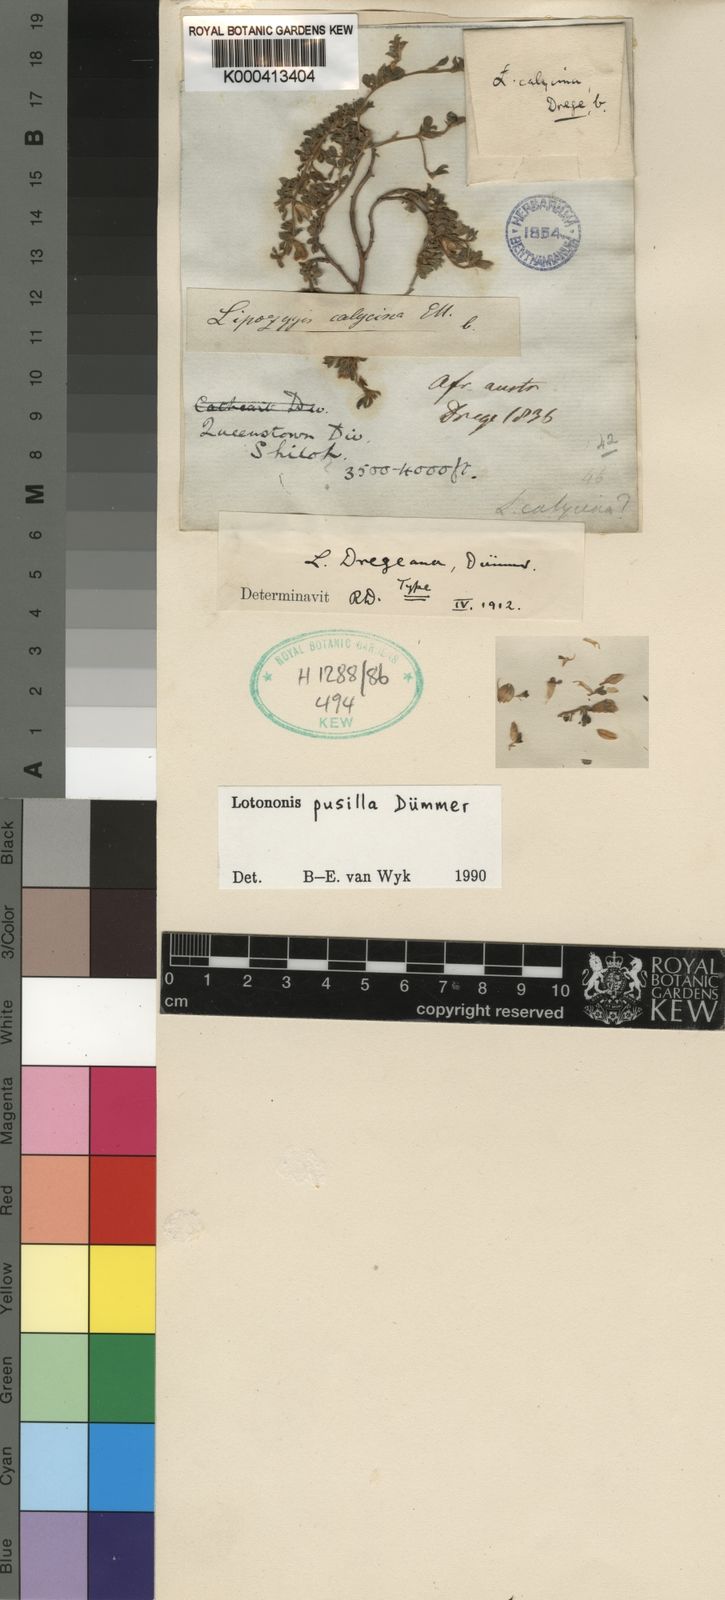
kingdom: Plantae
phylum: Tracheophyta
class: Magnoliopsida
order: Fabales
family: Fabaceae
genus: Leobordea
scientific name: Leobordea pusilla
